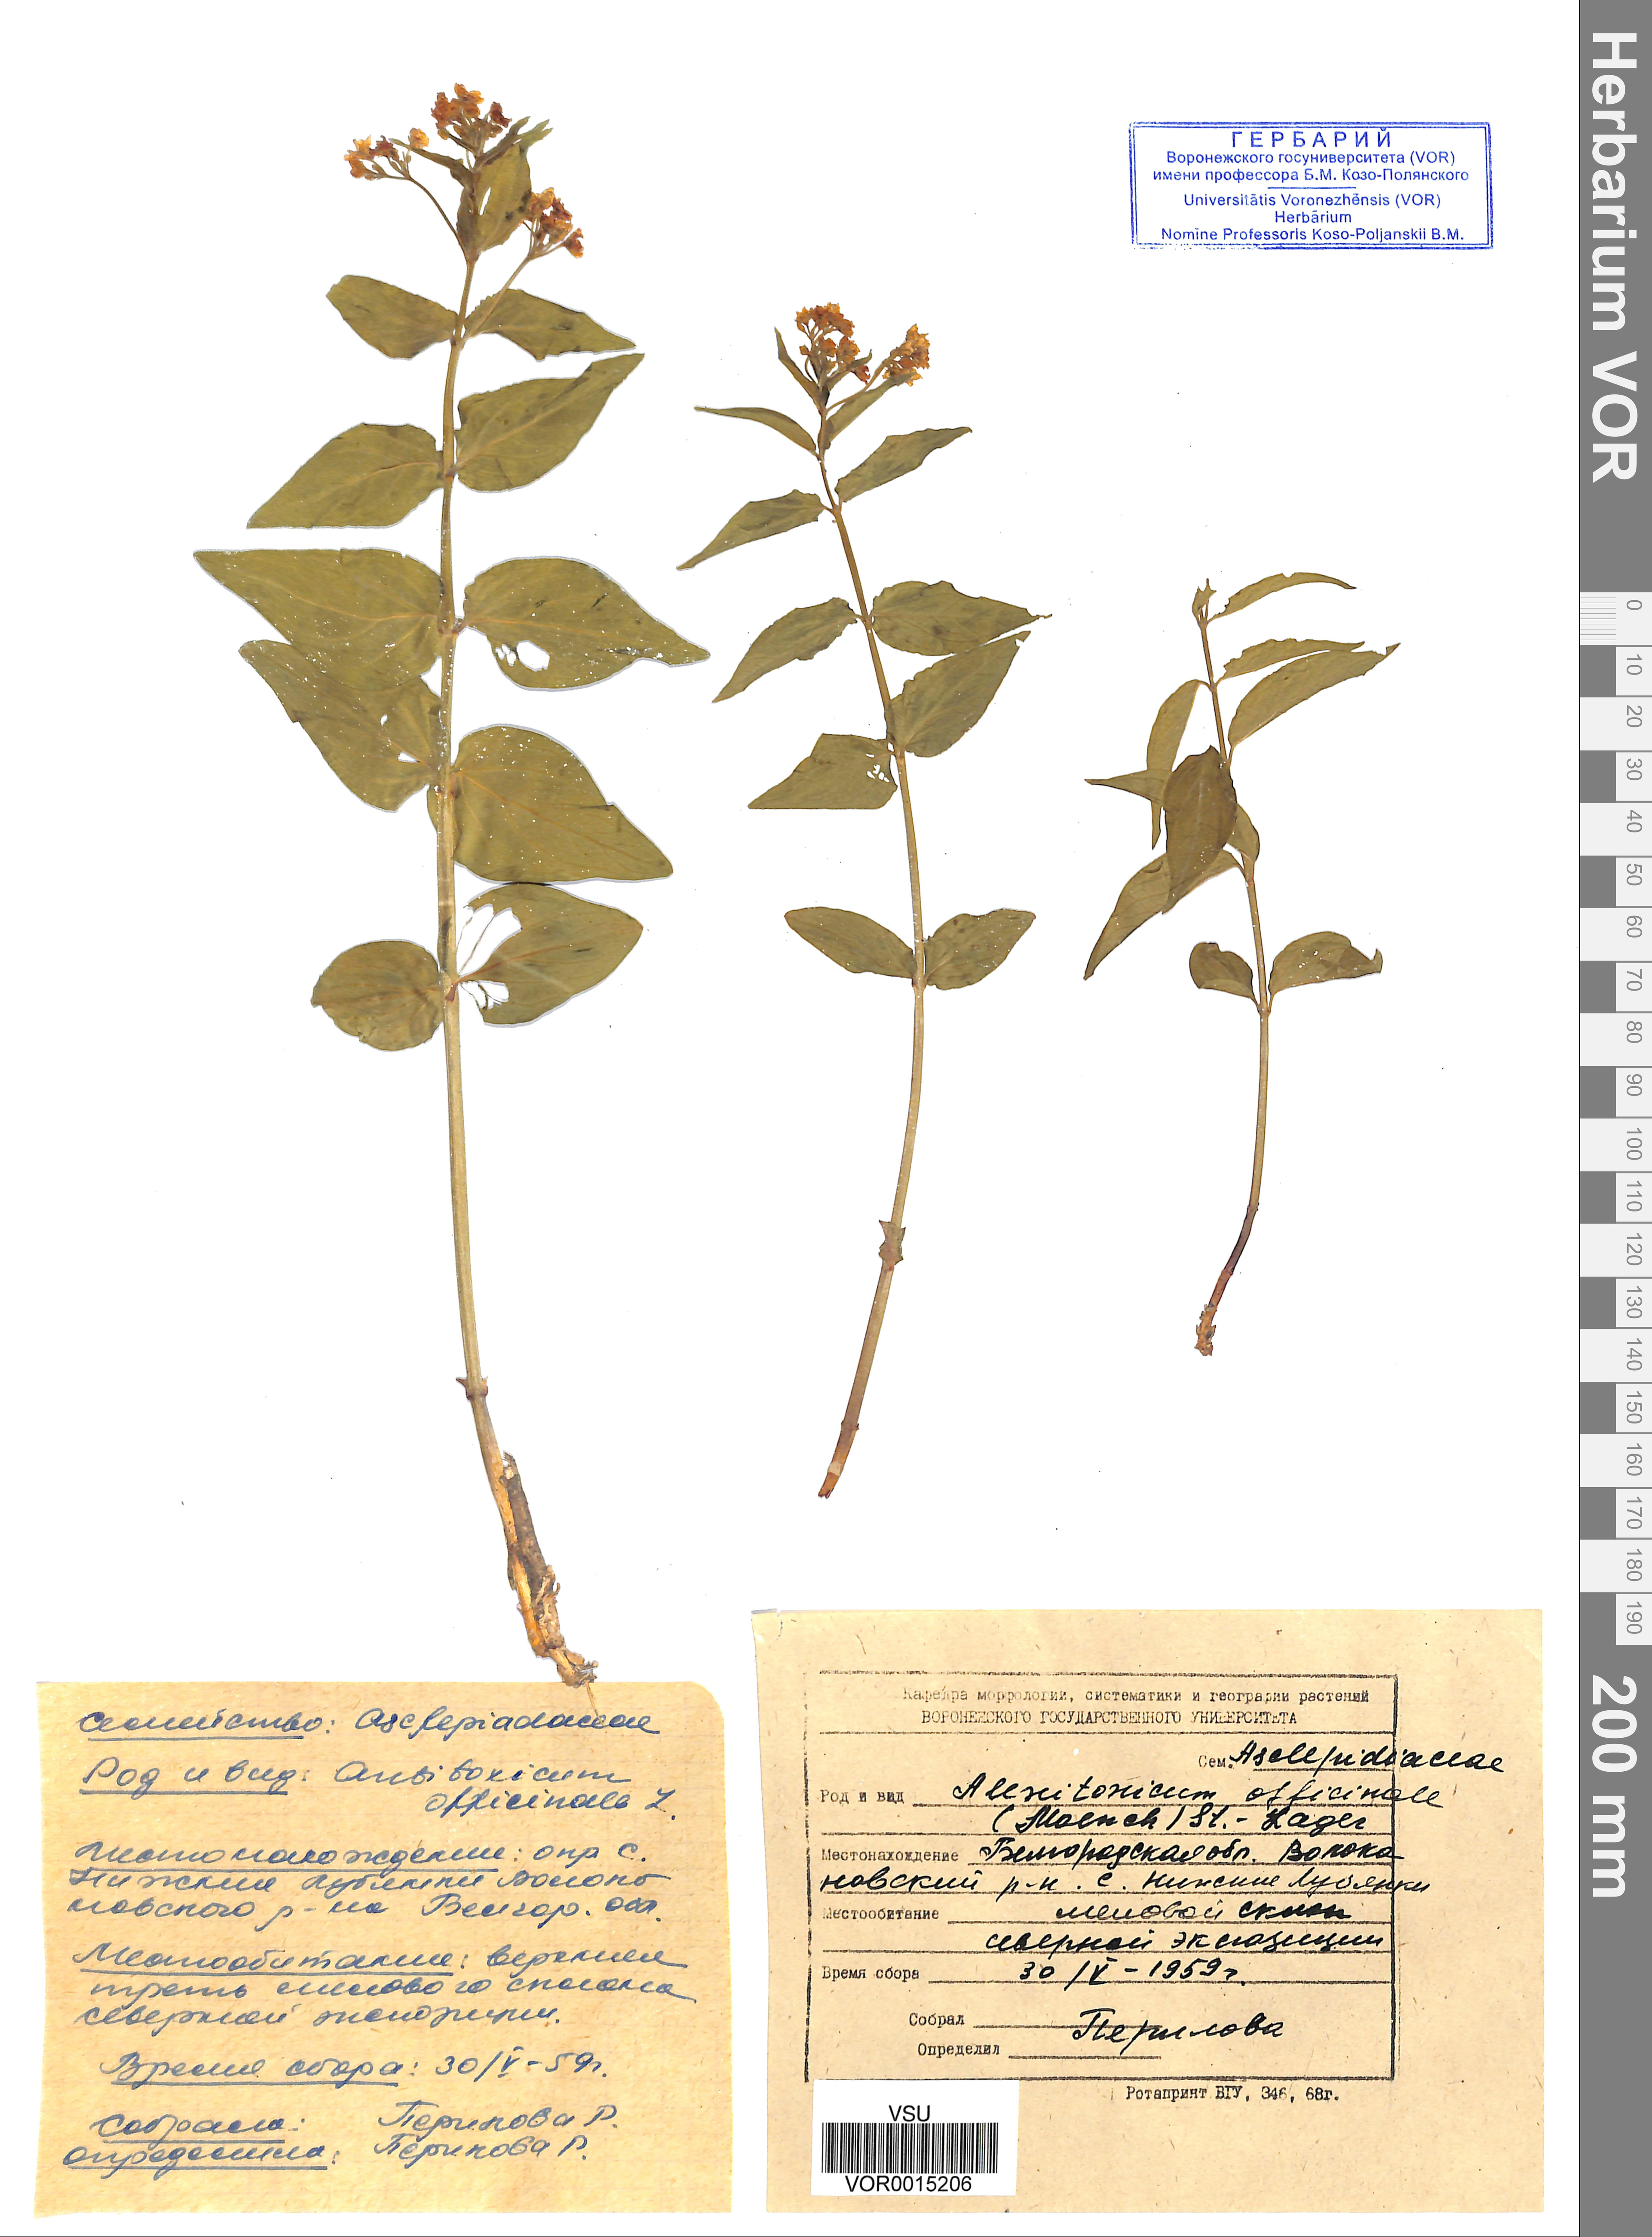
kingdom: Plantae
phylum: Tracheophyta
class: Magnoliopsida
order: Gentianales
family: Apocynaceae
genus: Vincetoxicum
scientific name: Vincetoxicum hirundinaria
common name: White swallowwort
